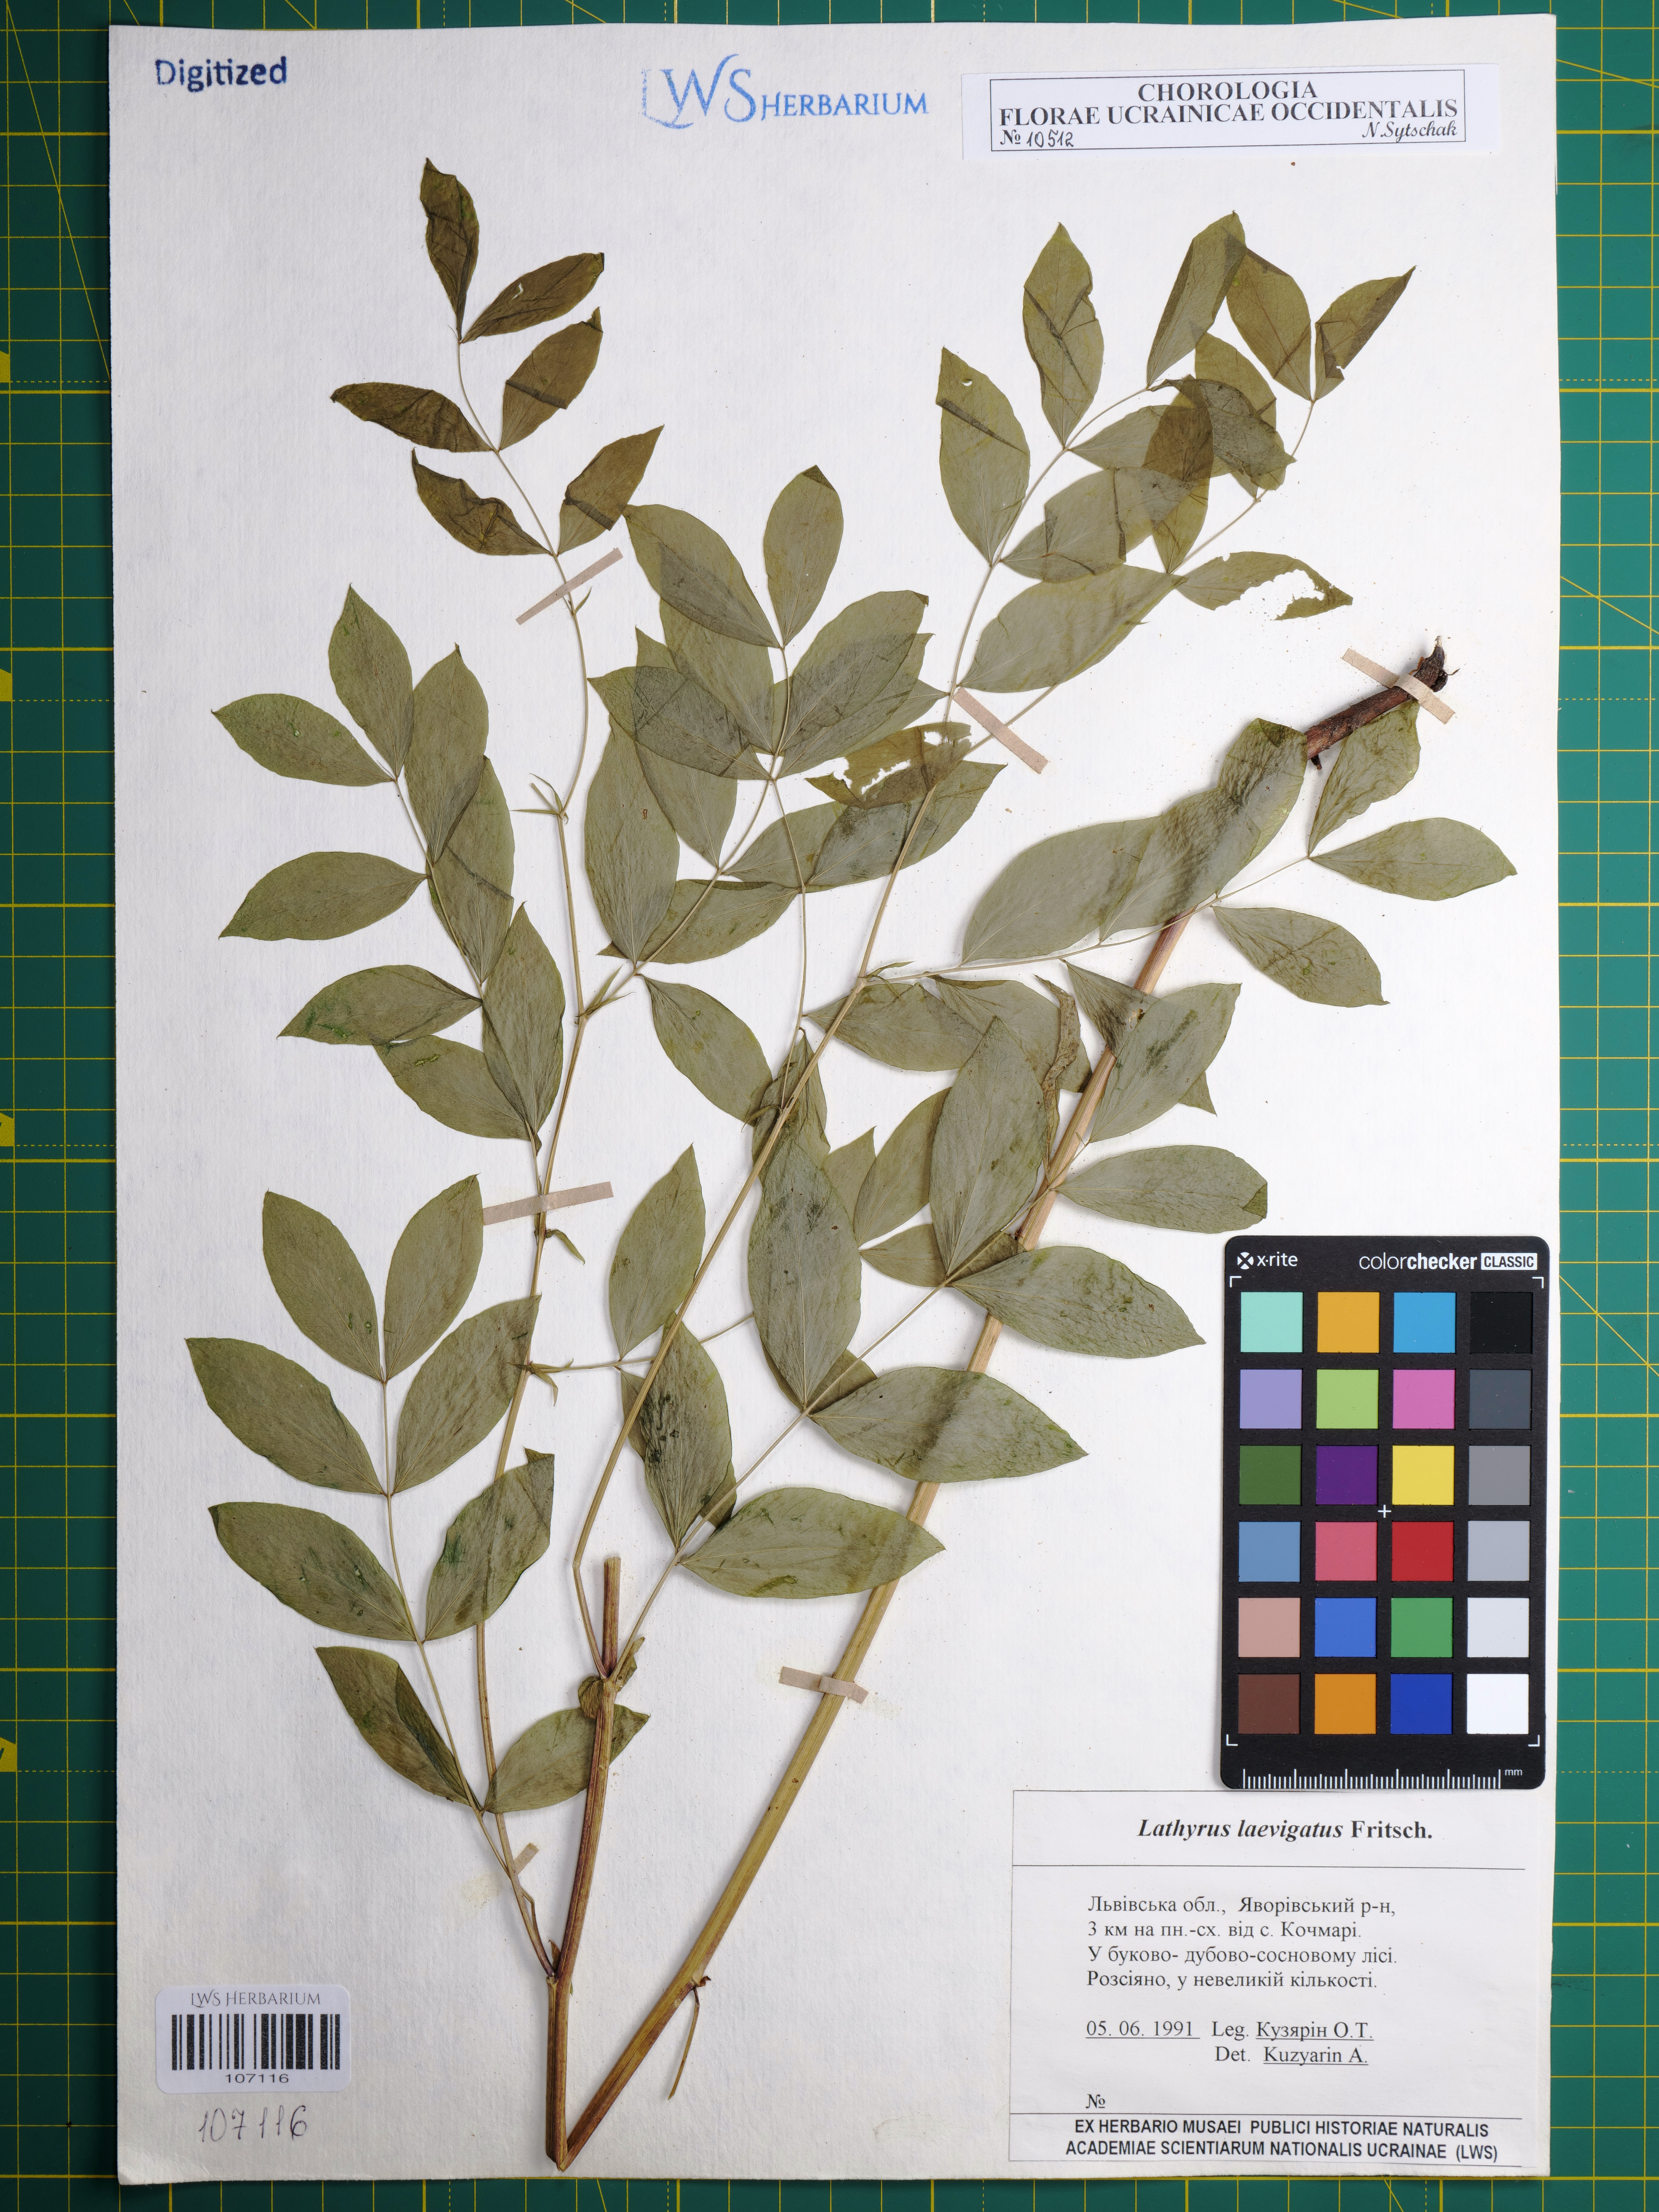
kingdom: Plantae
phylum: Tracheophyta
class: Magnoliopsida
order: Fabales
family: Fabaceae
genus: Lathyrus
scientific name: Lathyrus laevigatus
